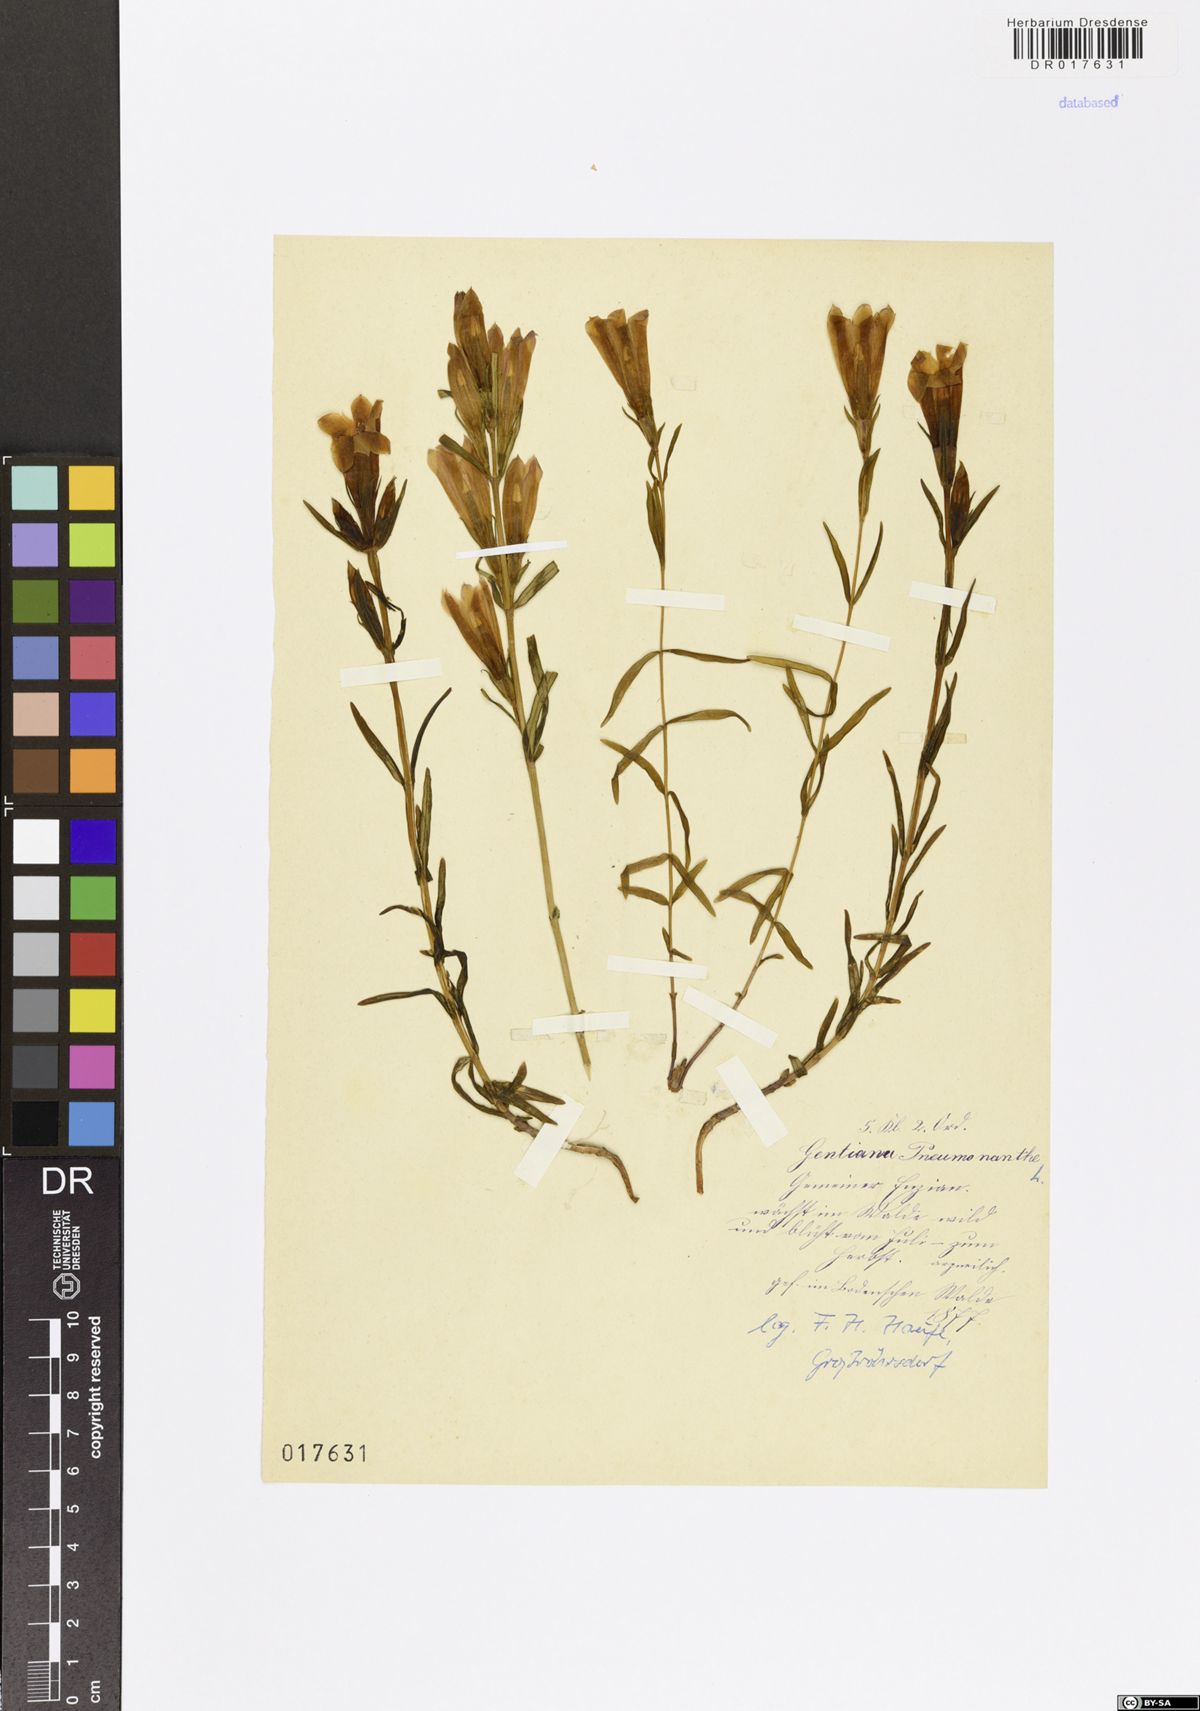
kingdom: Plantae
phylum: Tracheophyta
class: Magnoliopsida
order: Gentianales
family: Gentianaceae
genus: Gentiana
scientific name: Gentiana pneumonanthe
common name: Marsh gentian
